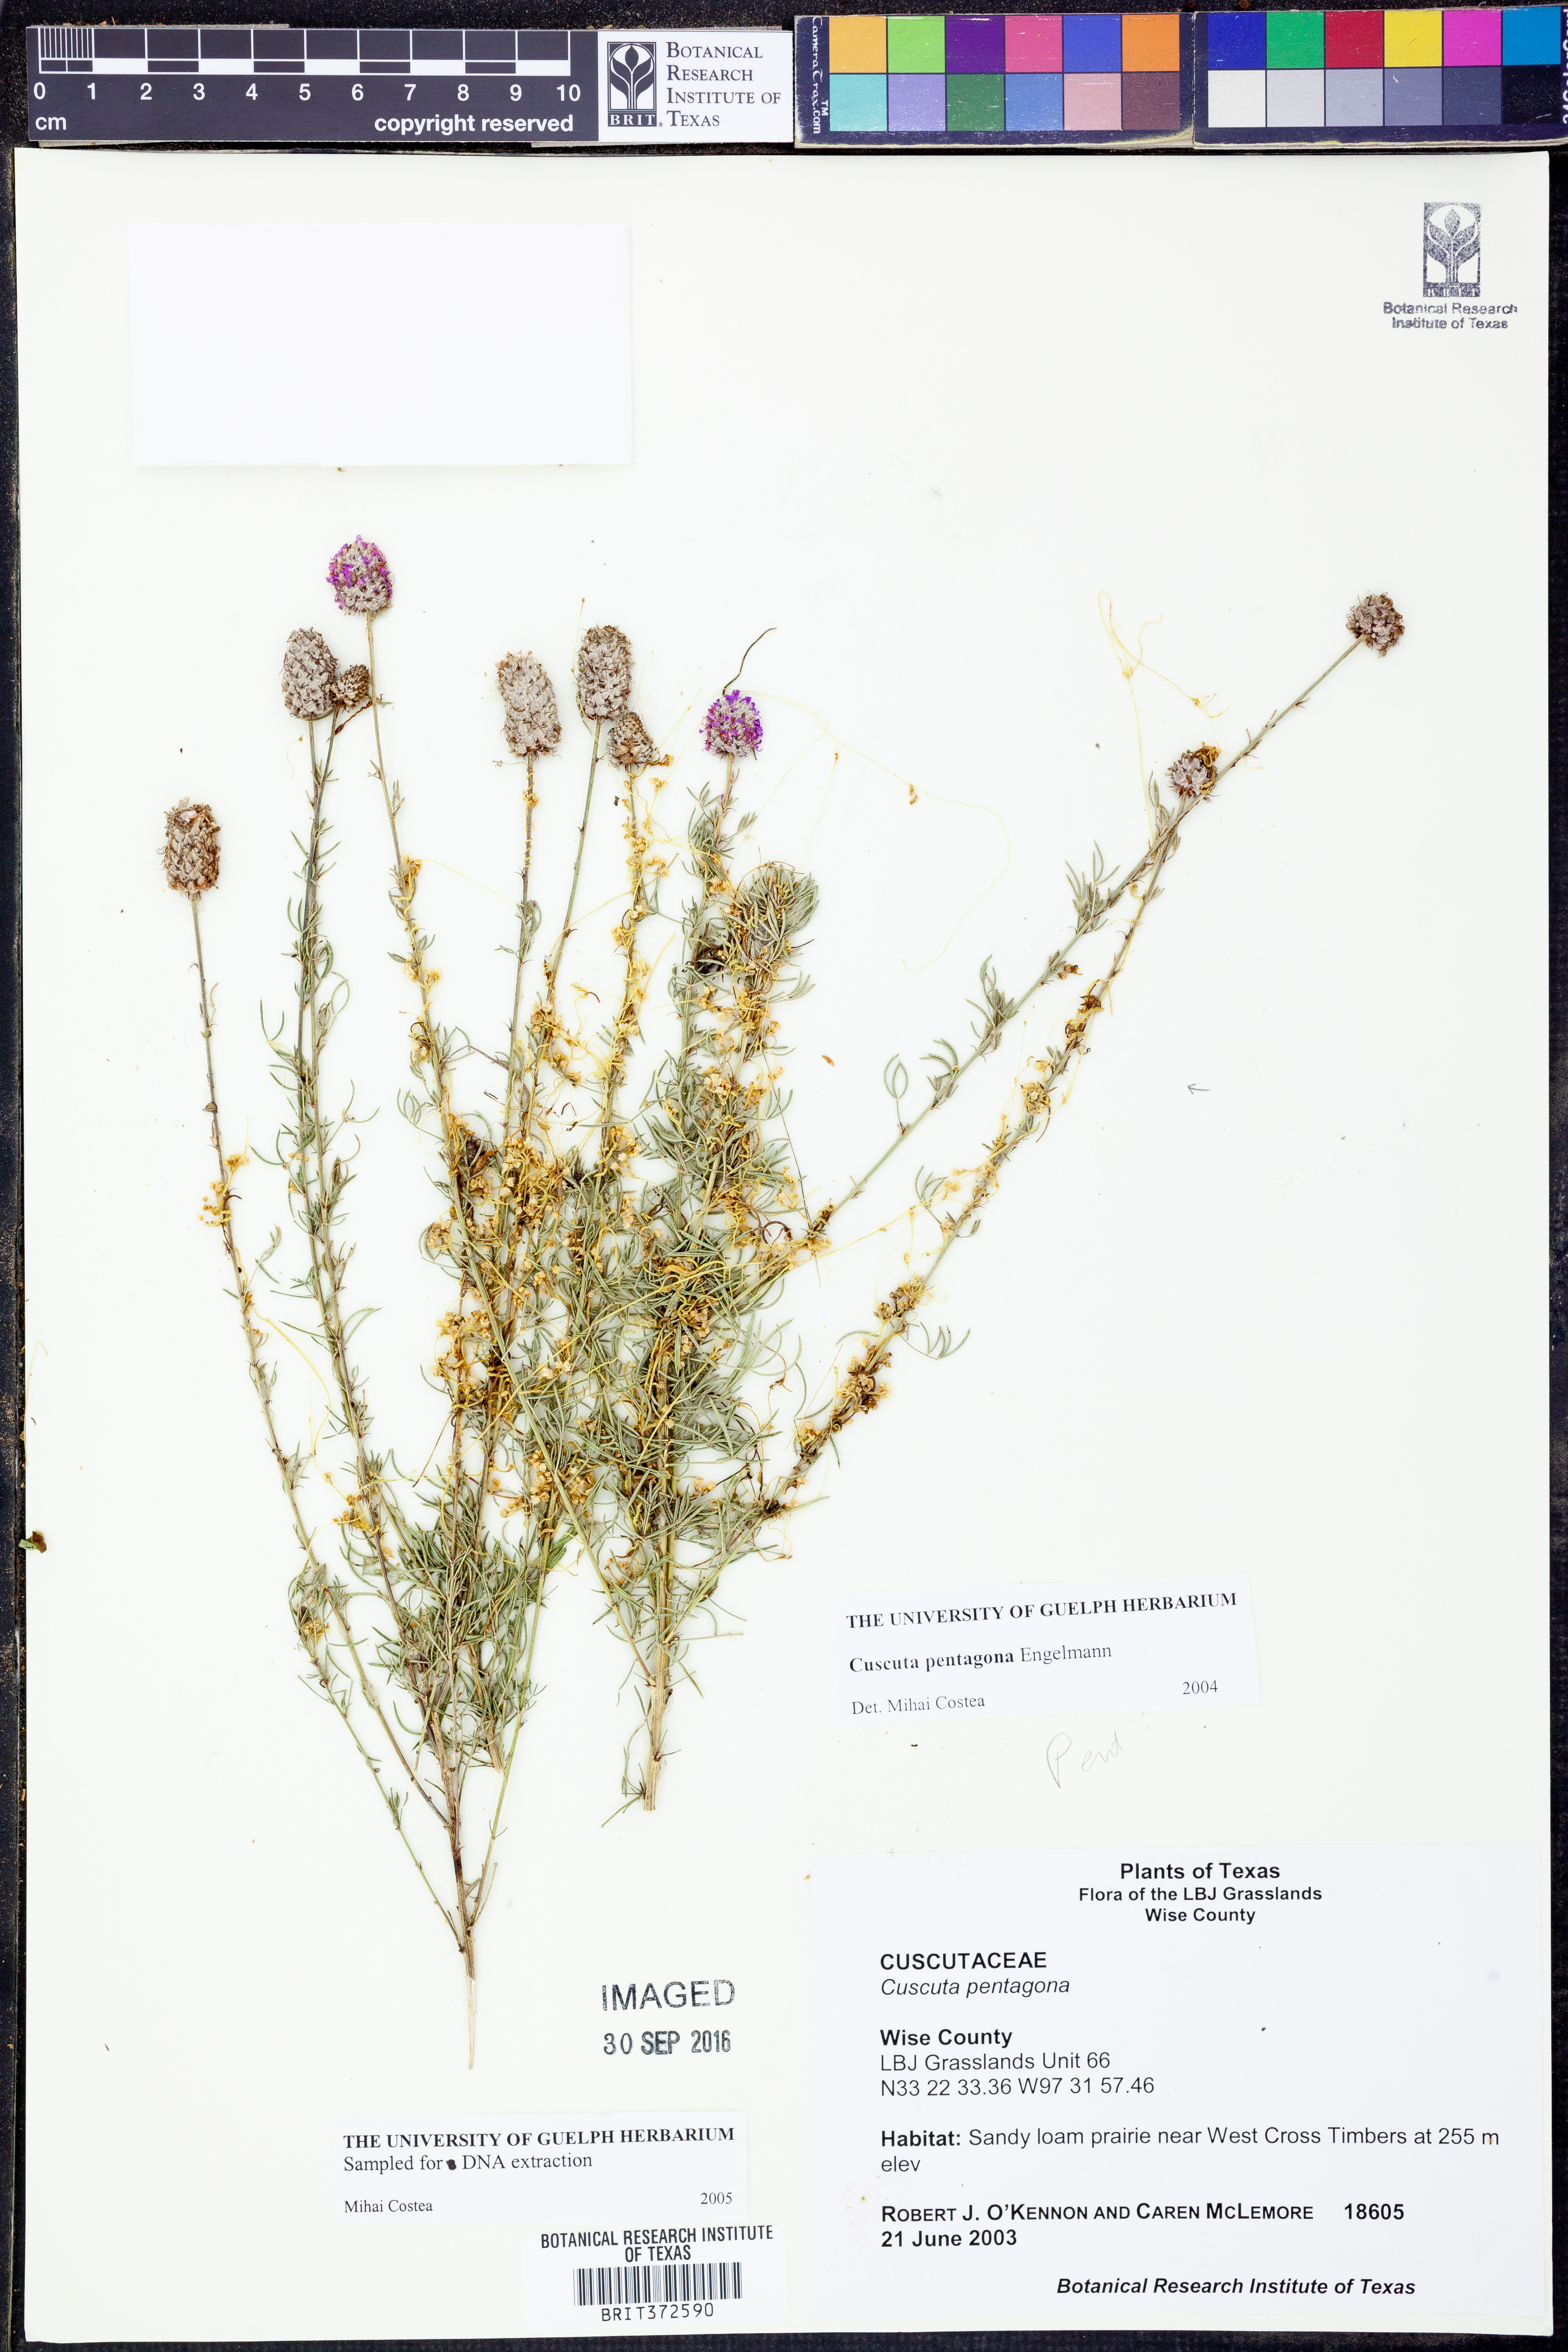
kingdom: Plantae
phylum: Tracheophyta
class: Magnoliopsida
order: Solanales
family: Convolvulaceae
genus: Cuscuta
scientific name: Cuscuta pentagona
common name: Fiveangled dodder
